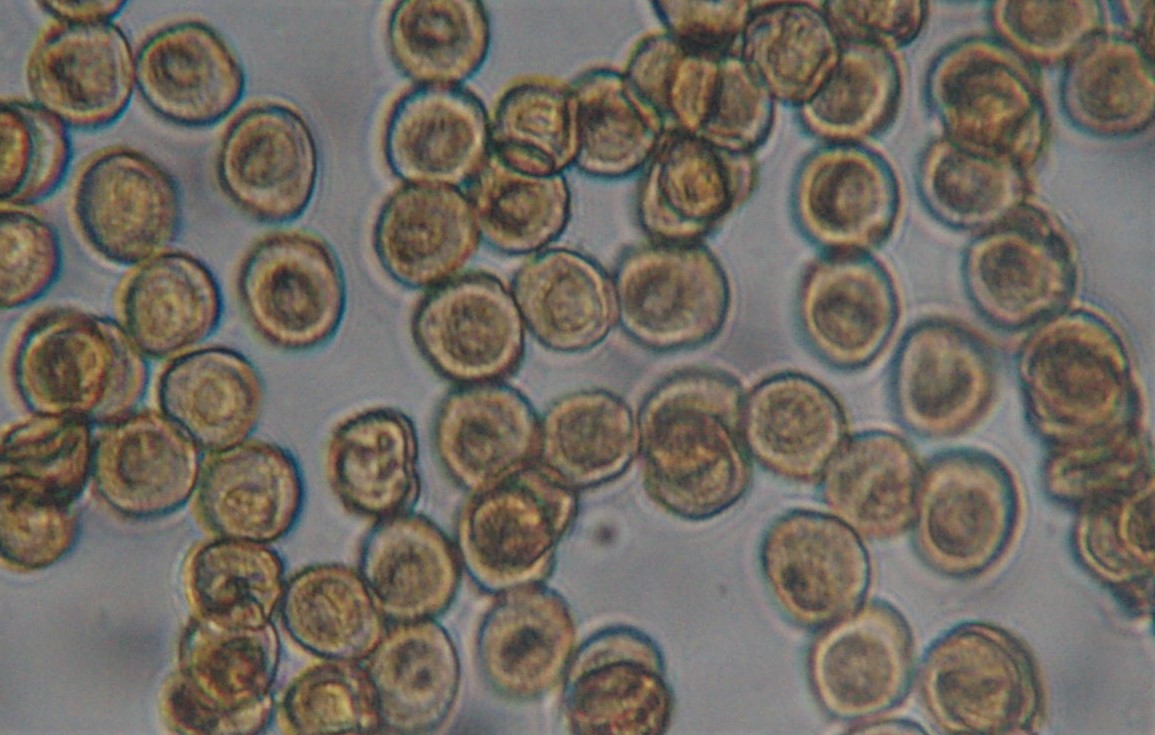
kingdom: Protozoa
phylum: Mycetozoa
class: Myxomycetes
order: Trichiales
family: Trichiaceae
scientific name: Trichiaceae
